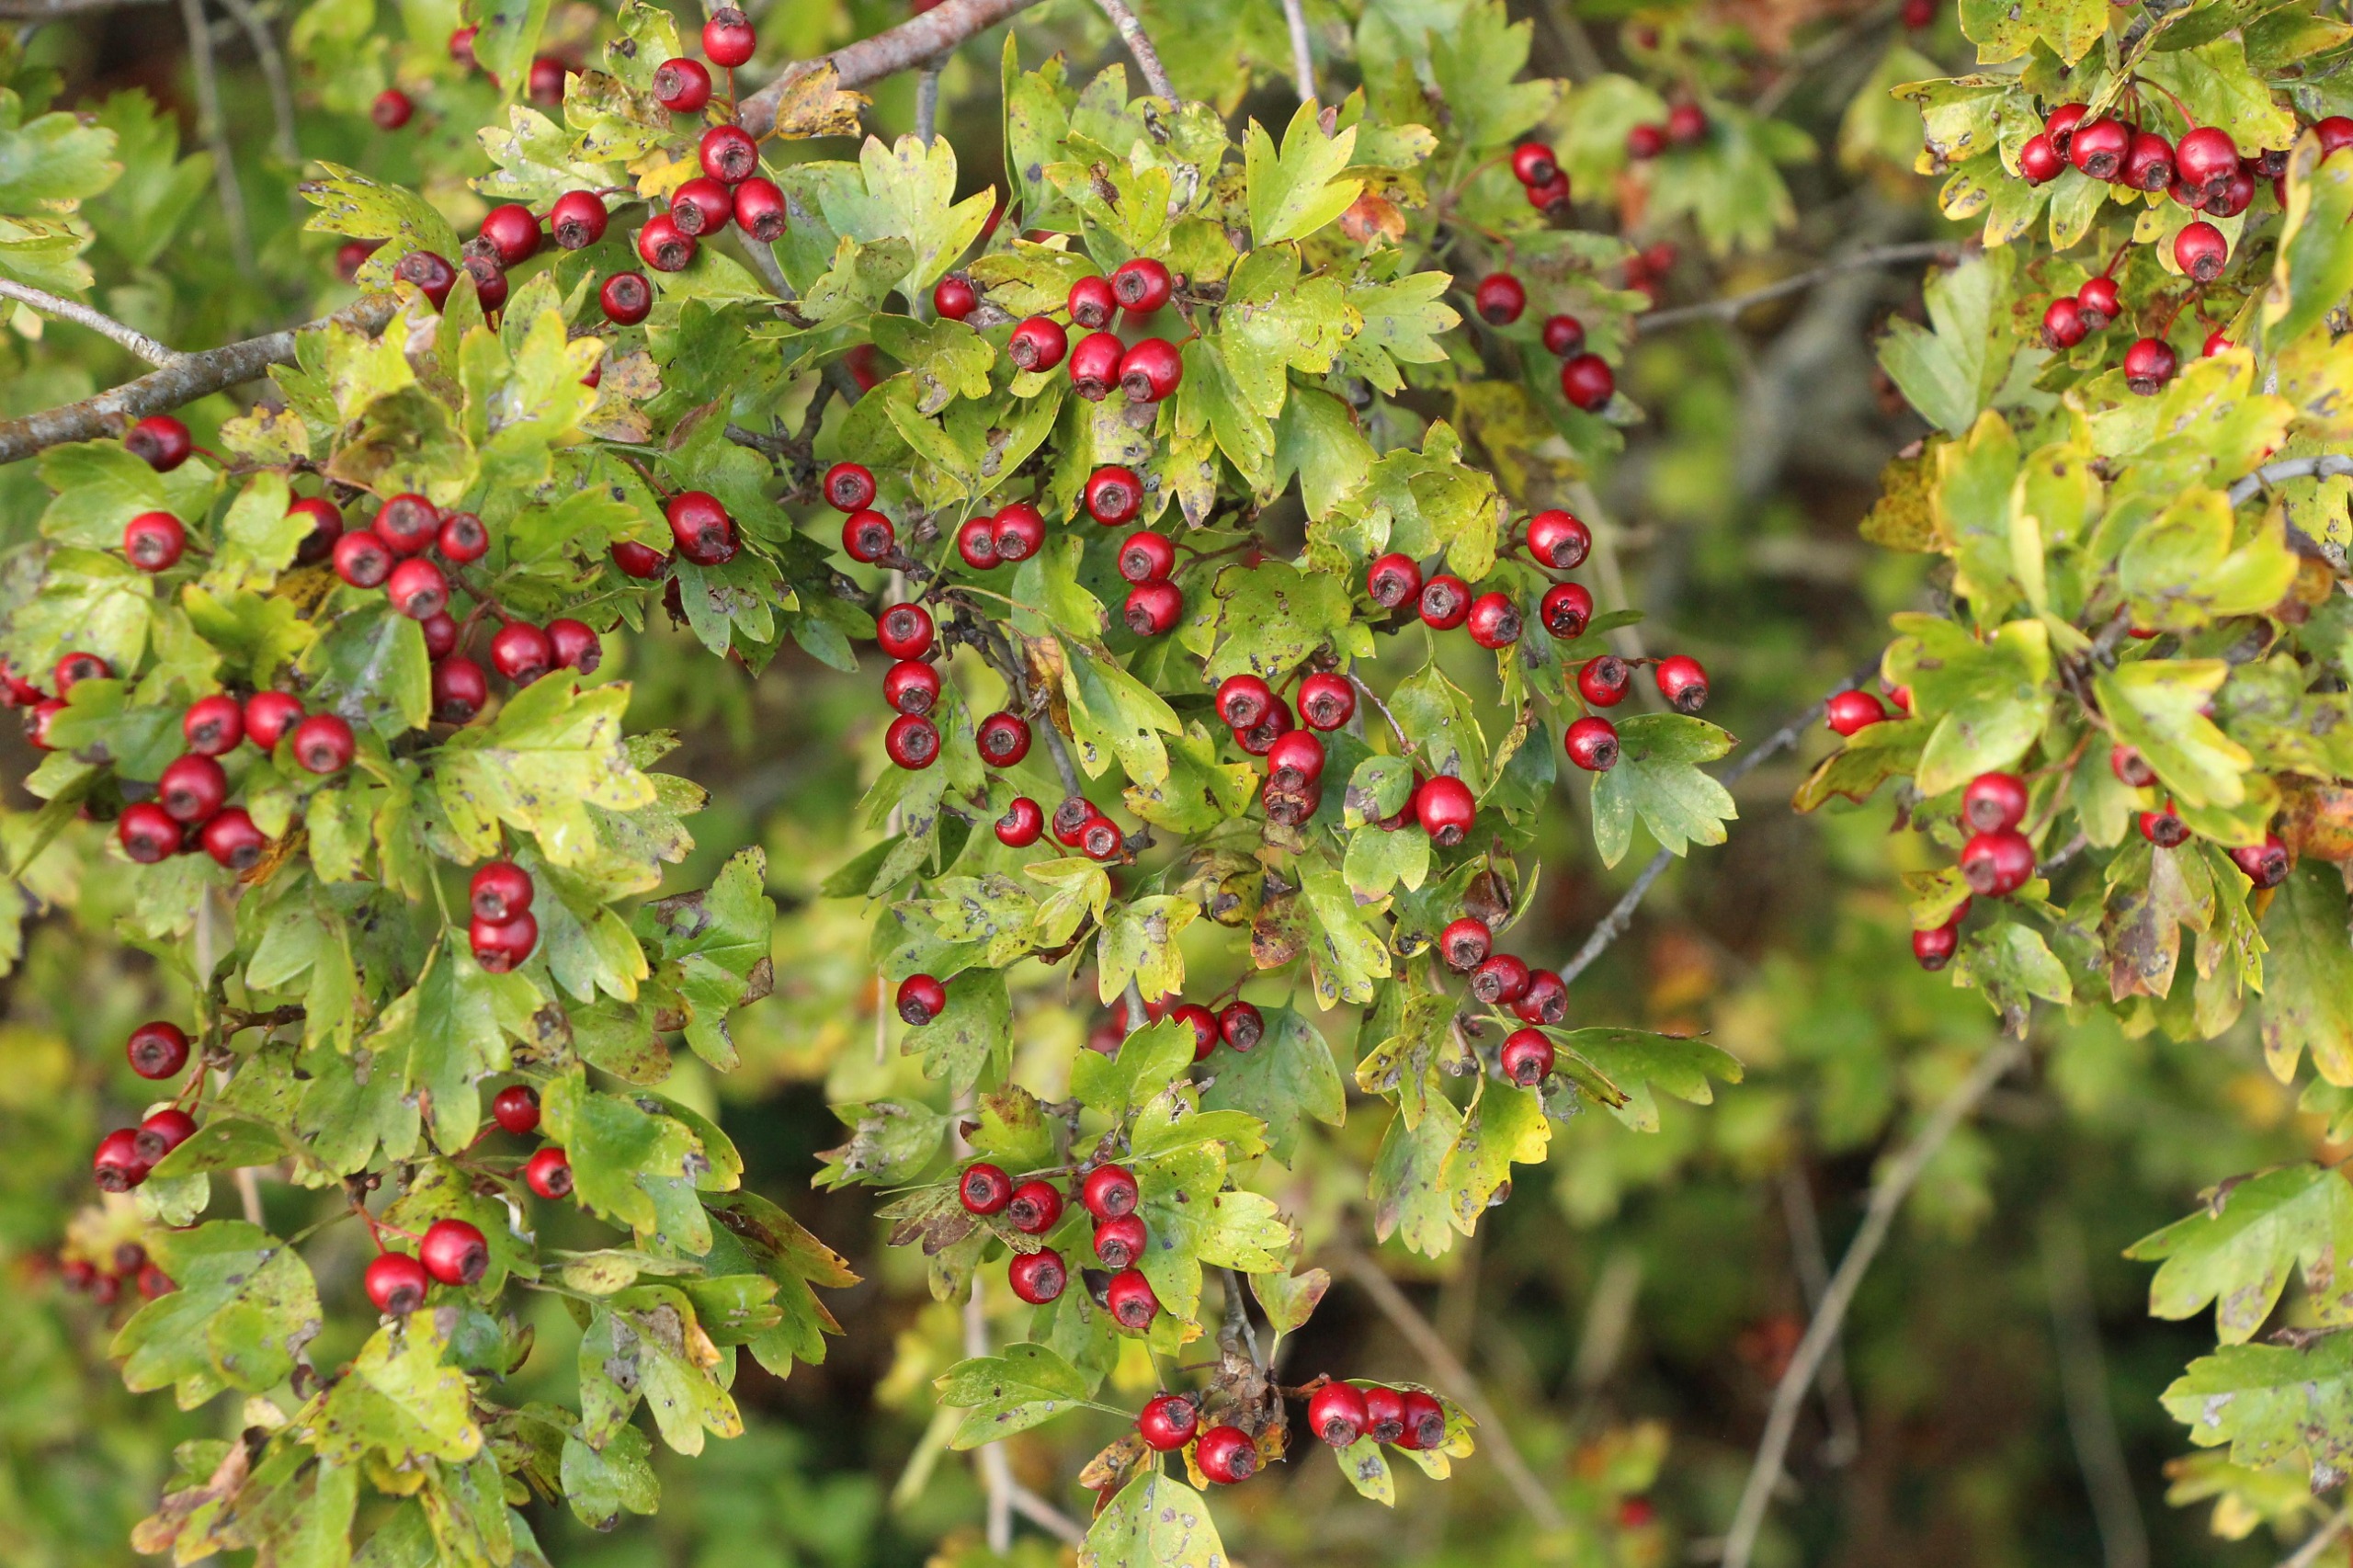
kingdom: Plantae
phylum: Tracheophyta
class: Magnoliopsida
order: Rosales
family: Rosaceae
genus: Crataegus
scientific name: Crataegus media
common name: Almindelig hvidtjørn × engriflet hvidtjørn
